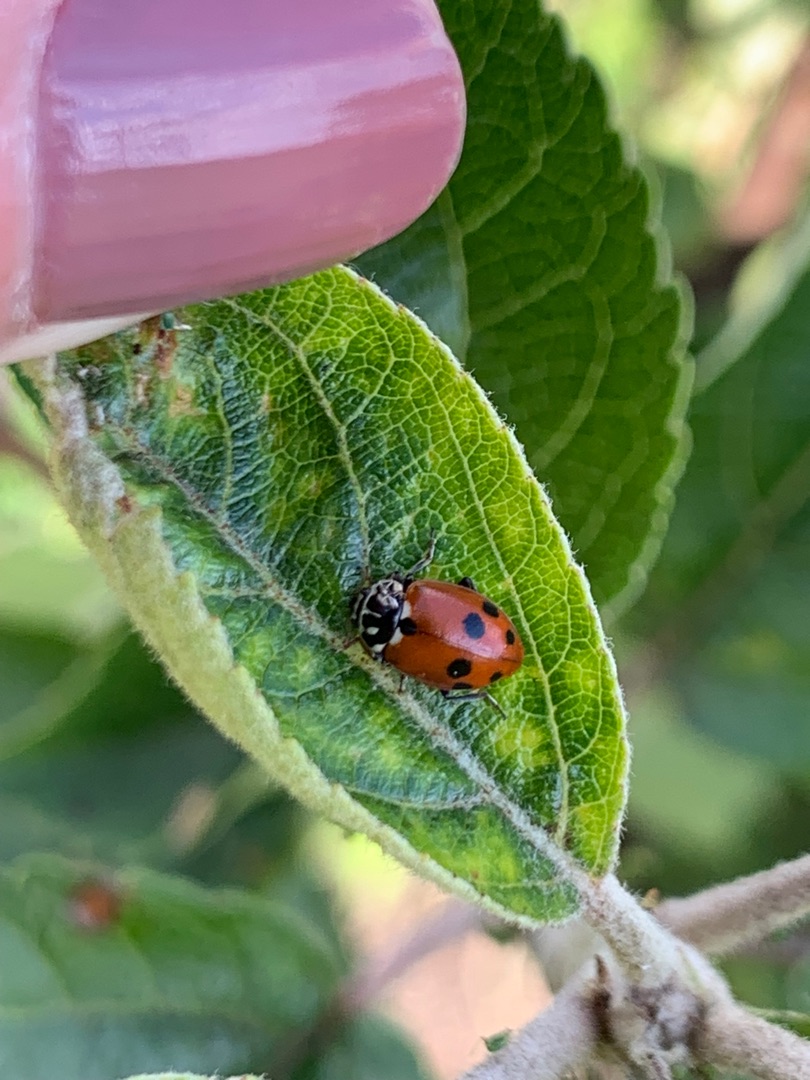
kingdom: Animalia
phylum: Arthropoda
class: Insecta
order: Coleoptera
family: Coccinellidae
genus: Hippodamia
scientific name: Hippodamia variegata
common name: Adonis' mariehøne
